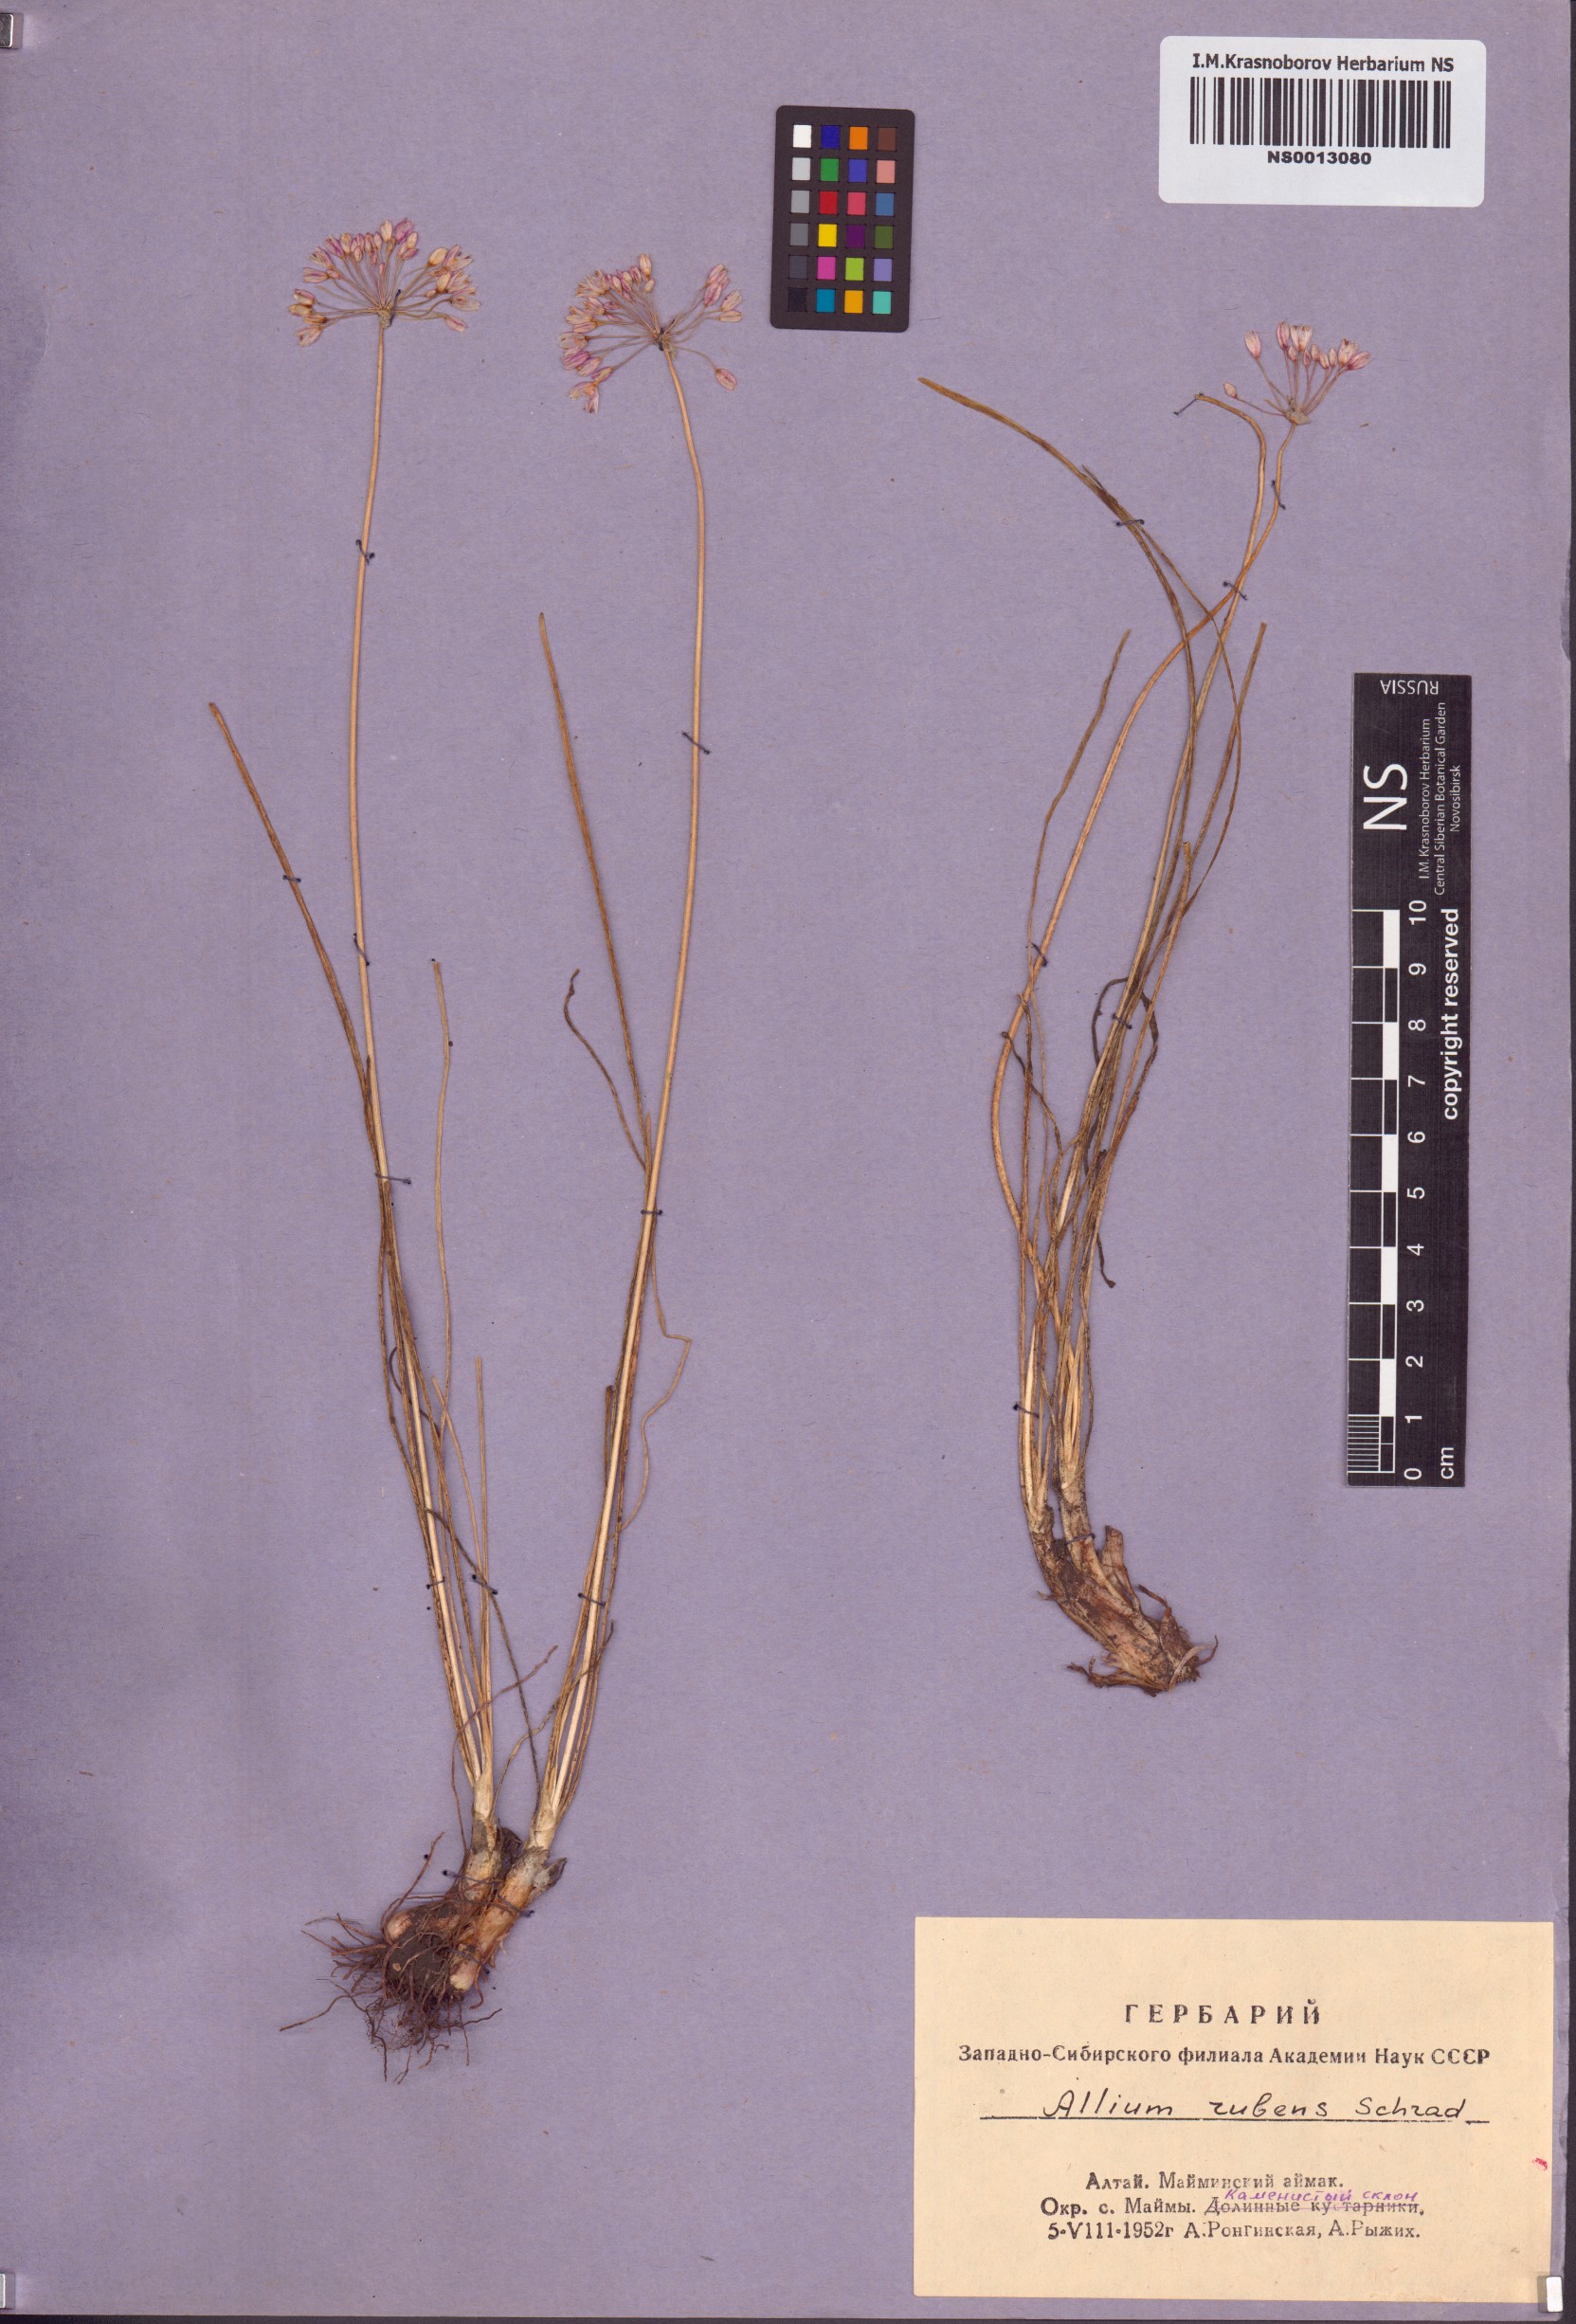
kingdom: Plantae
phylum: Tracheophyta
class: Liliopsida
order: Asparagales
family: Amaryllidaceae
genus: Allium
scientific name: Allium rubens
